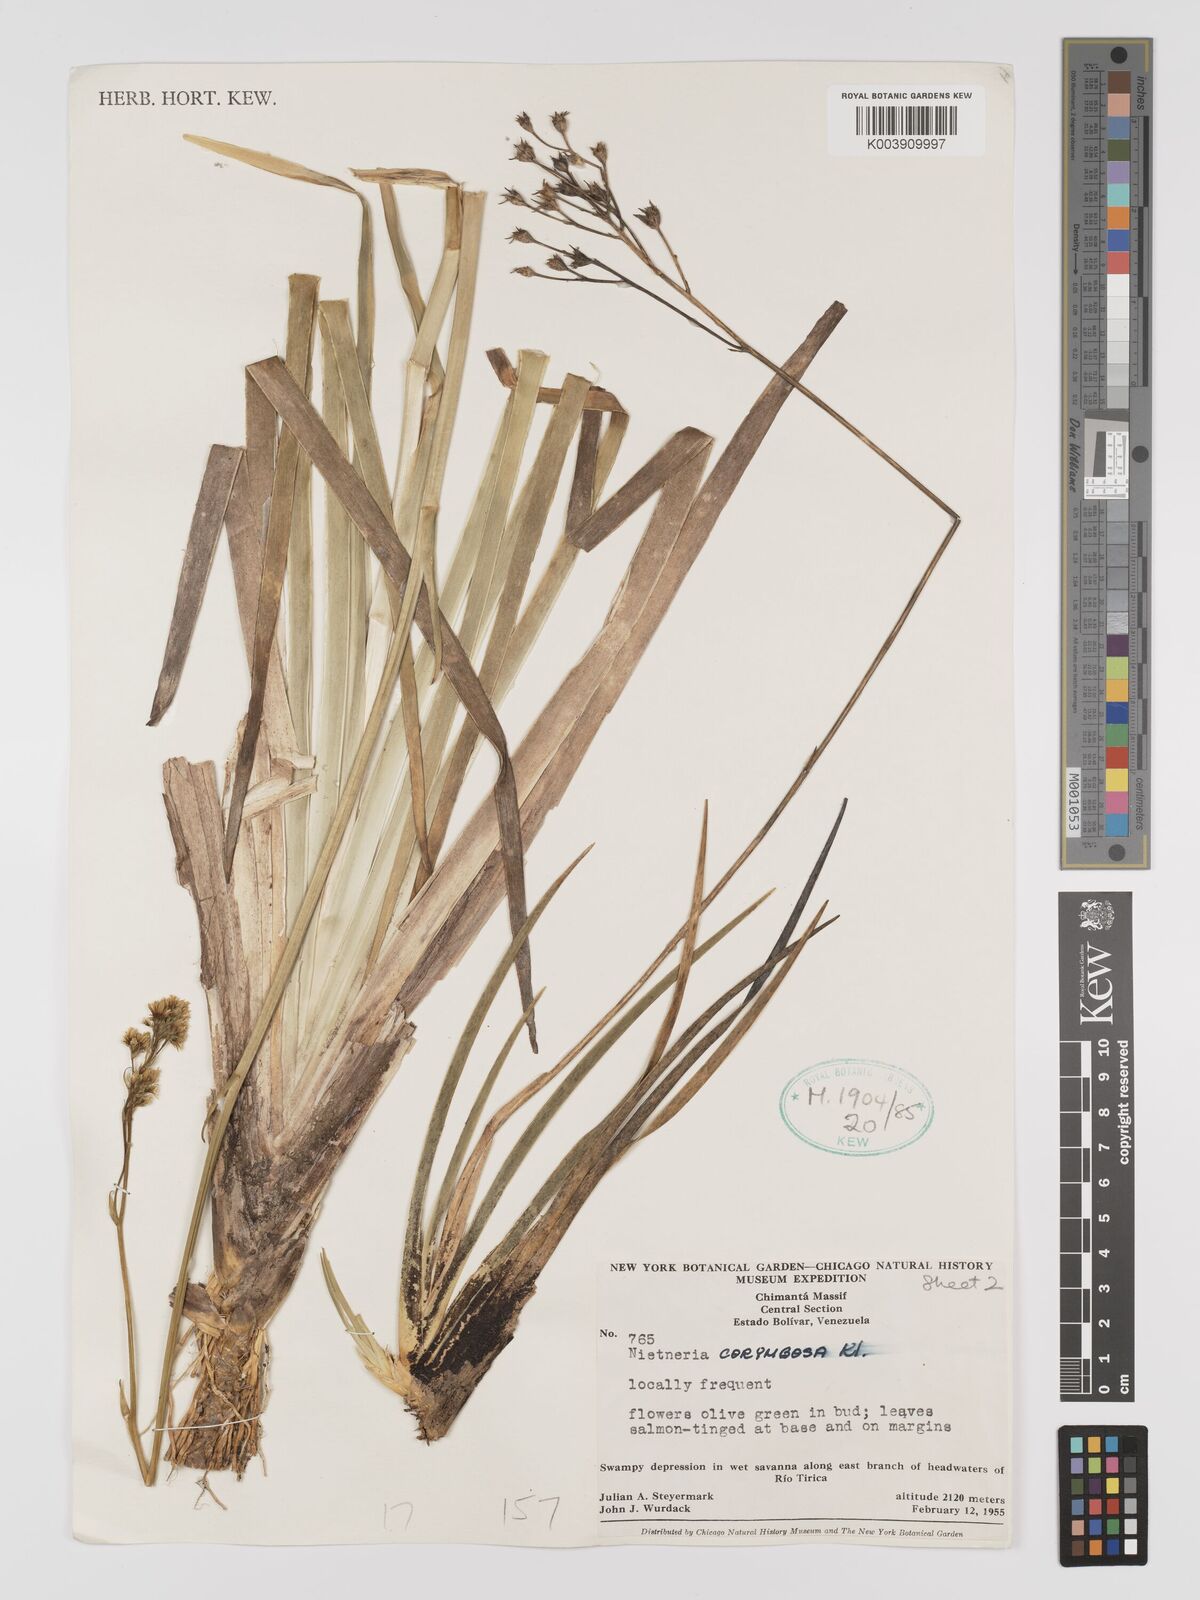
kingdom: Plantae
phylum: Tracheophyta
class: Liliopsida
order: Dioscoreales
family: Nartheciaceae
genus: Nietneria
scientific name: Nietneria corymbosa
